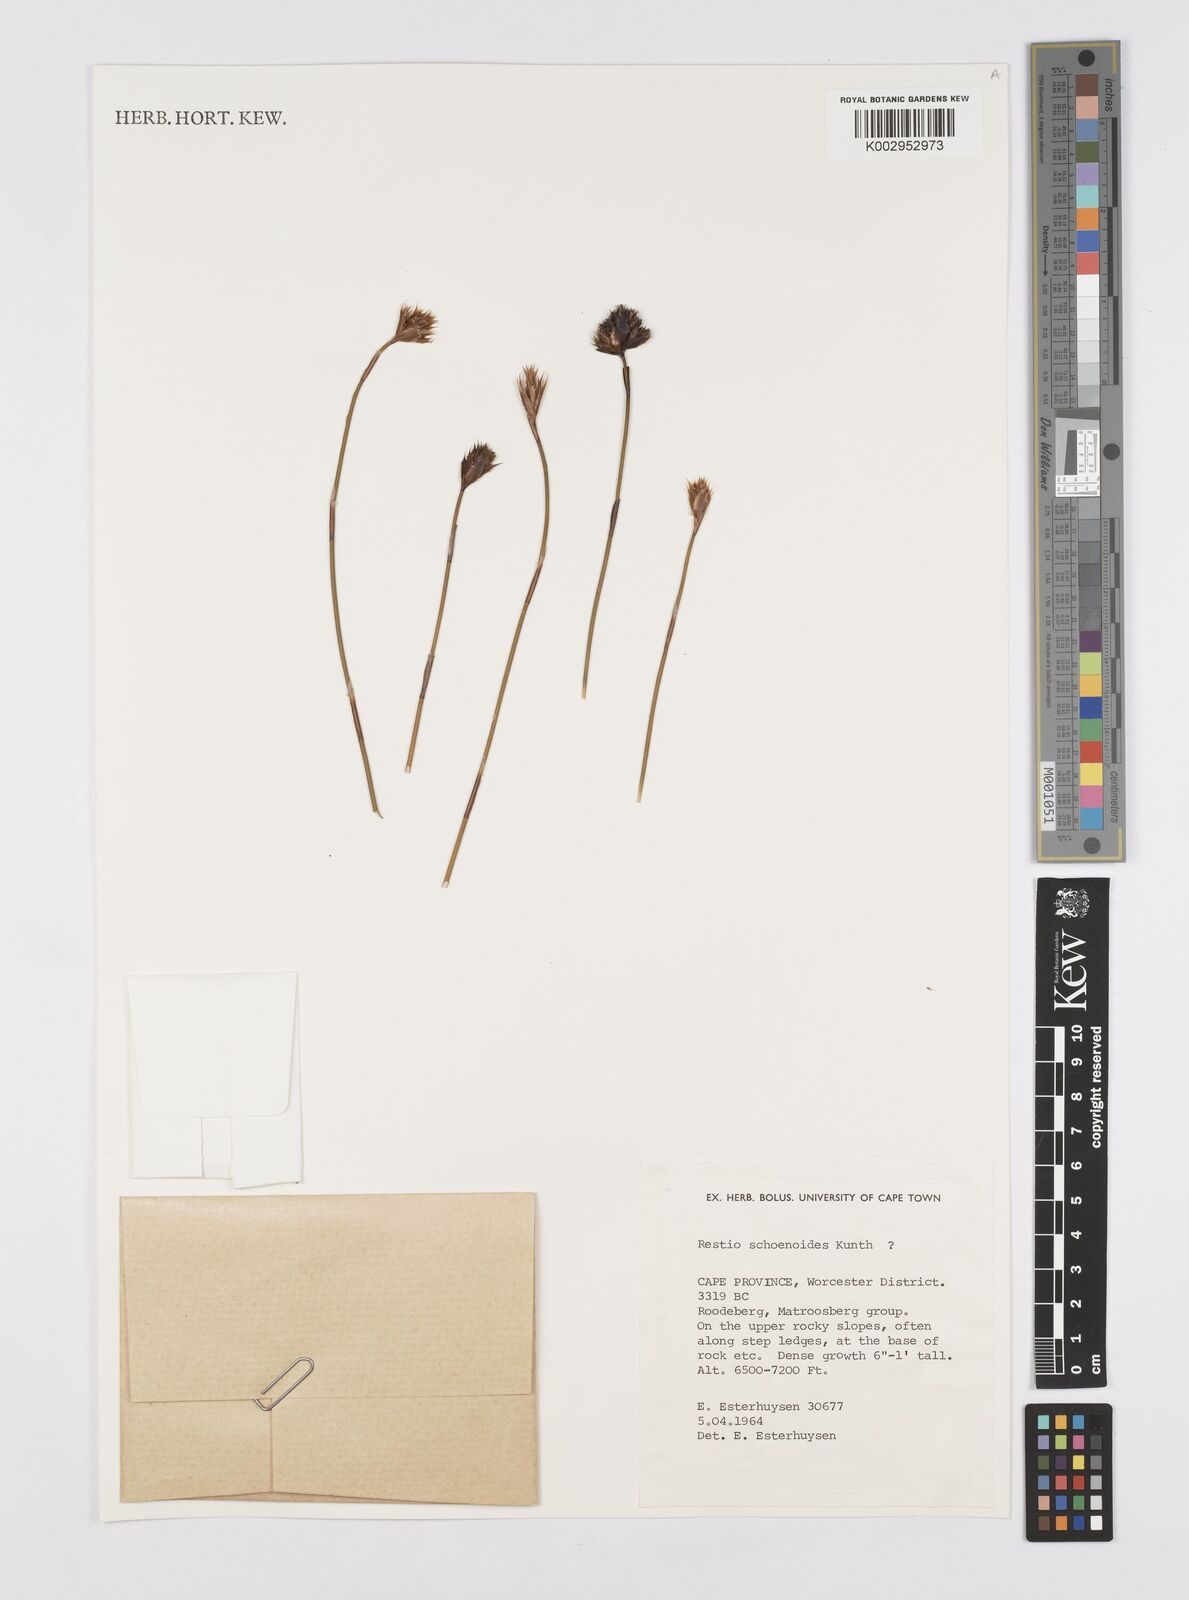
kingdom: Plantae
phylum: Tracheophyta
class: Liliopsida
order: Poales
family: Restionaceae
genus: Restio
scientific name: Restio schoenoides
